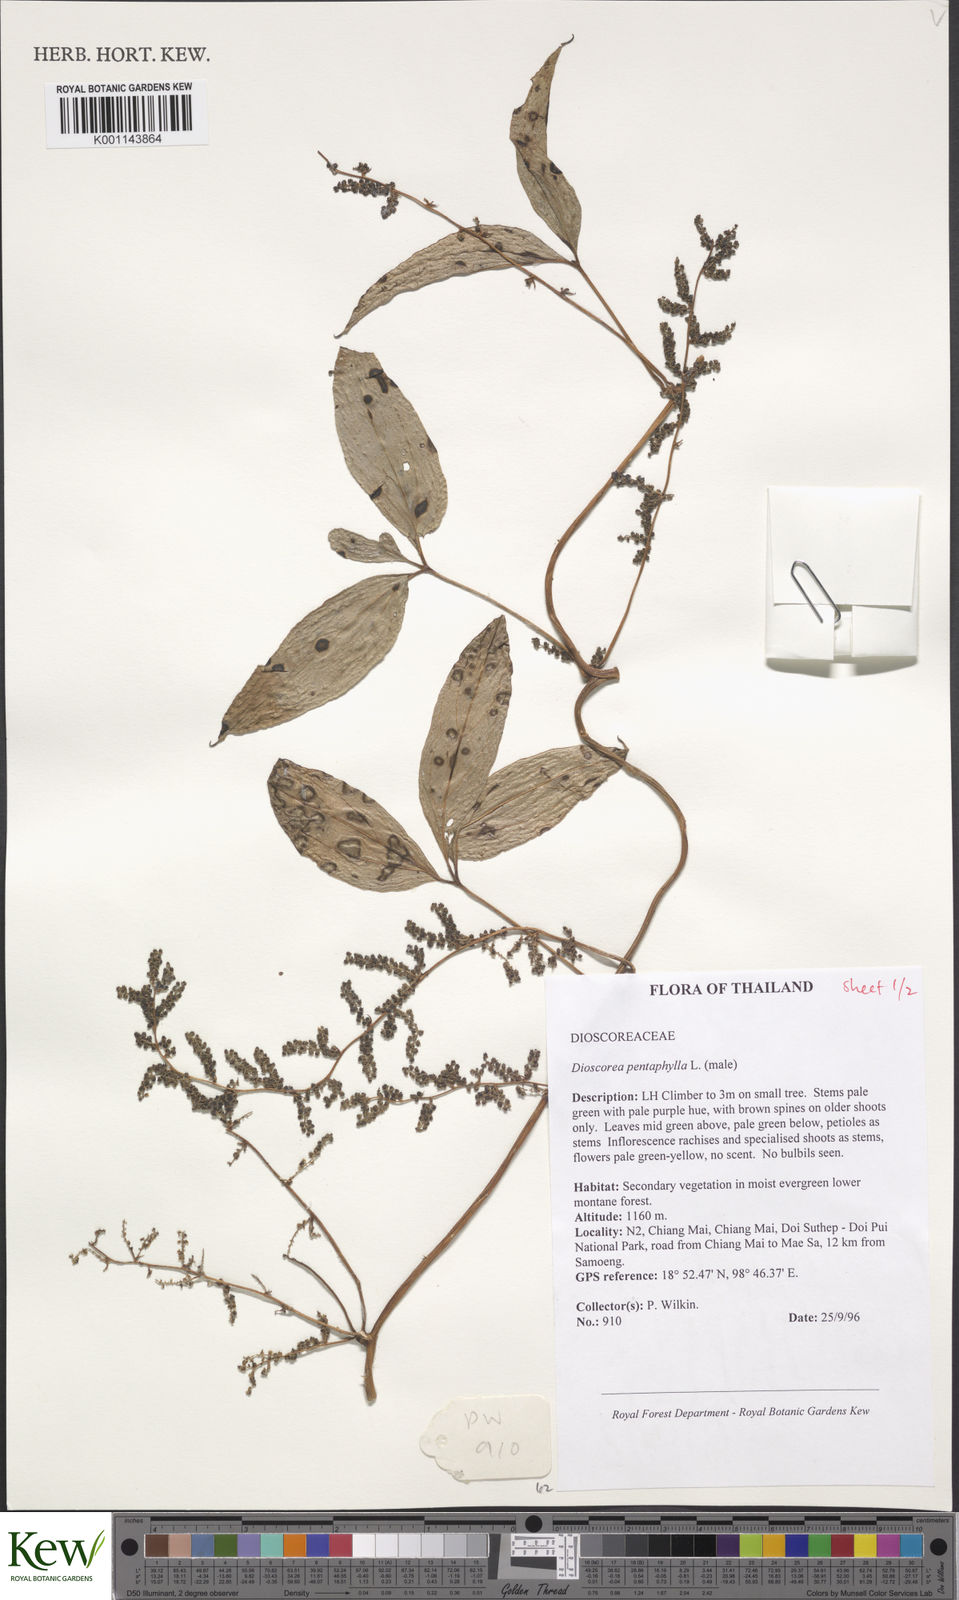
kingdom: Plantae
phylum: Tracheophyta
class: Liliopsida
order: Dioscoreales
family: Dioscoreaceae
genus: Dioscorea
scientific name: Dioscorea pentaphylla
